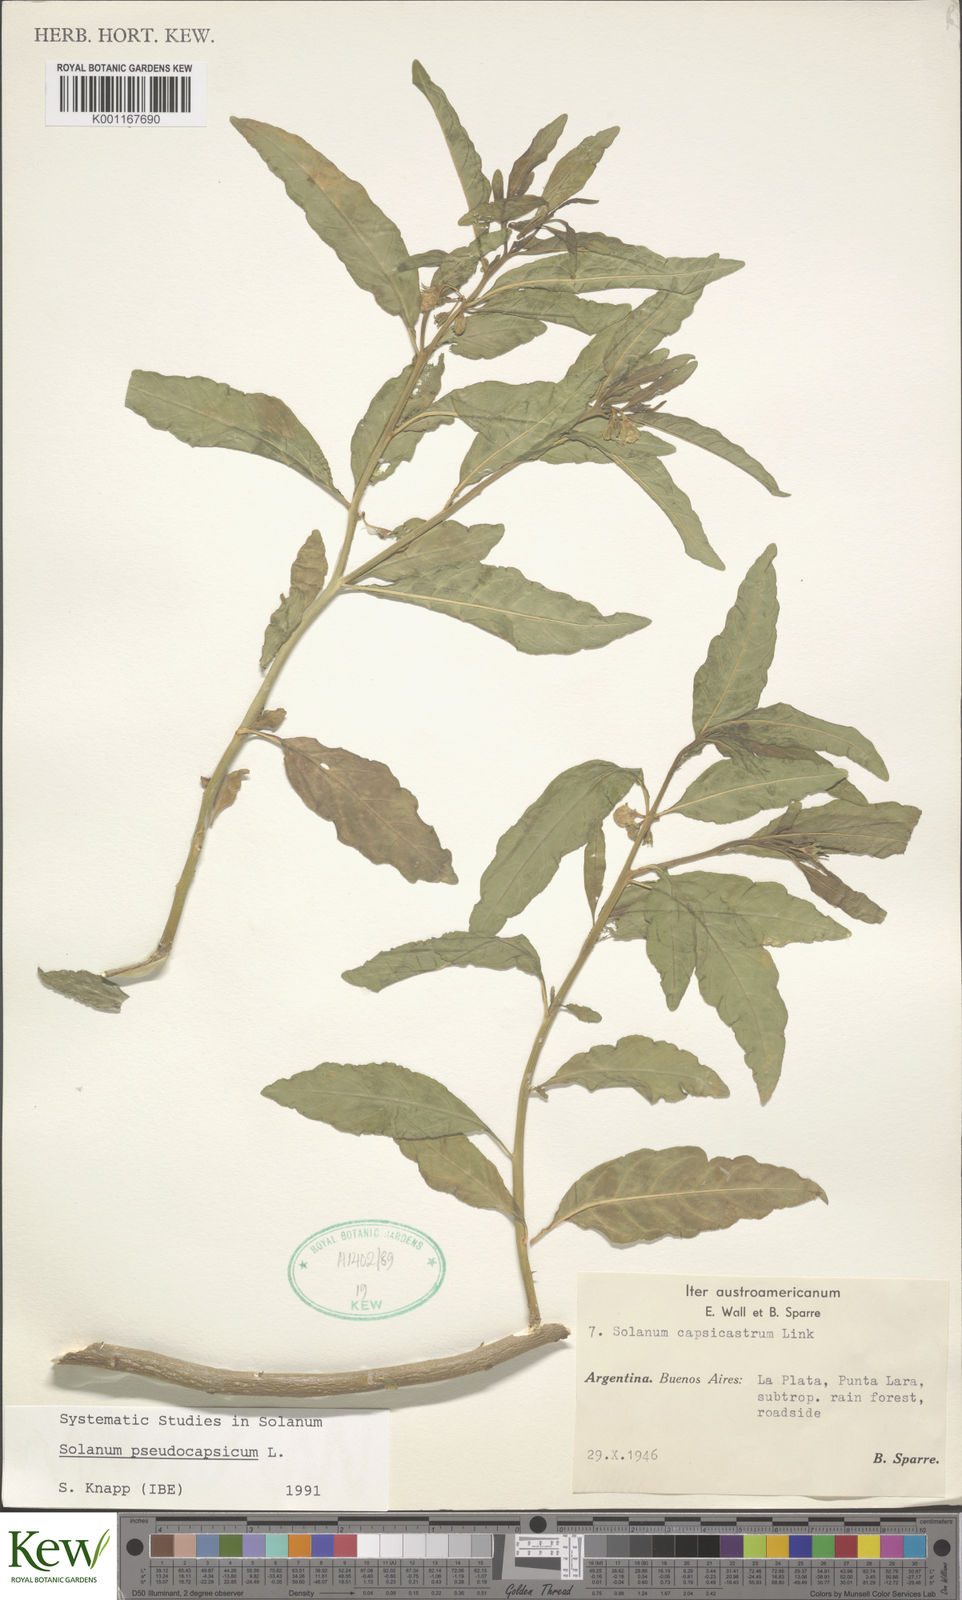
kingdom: Plantae
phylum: Tracheophyta
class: Magnoliopsida
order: Solanales
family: Solanaceae
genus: Solanum
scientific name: Solanum pseudocapsicum
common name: Jerusalem cherry
